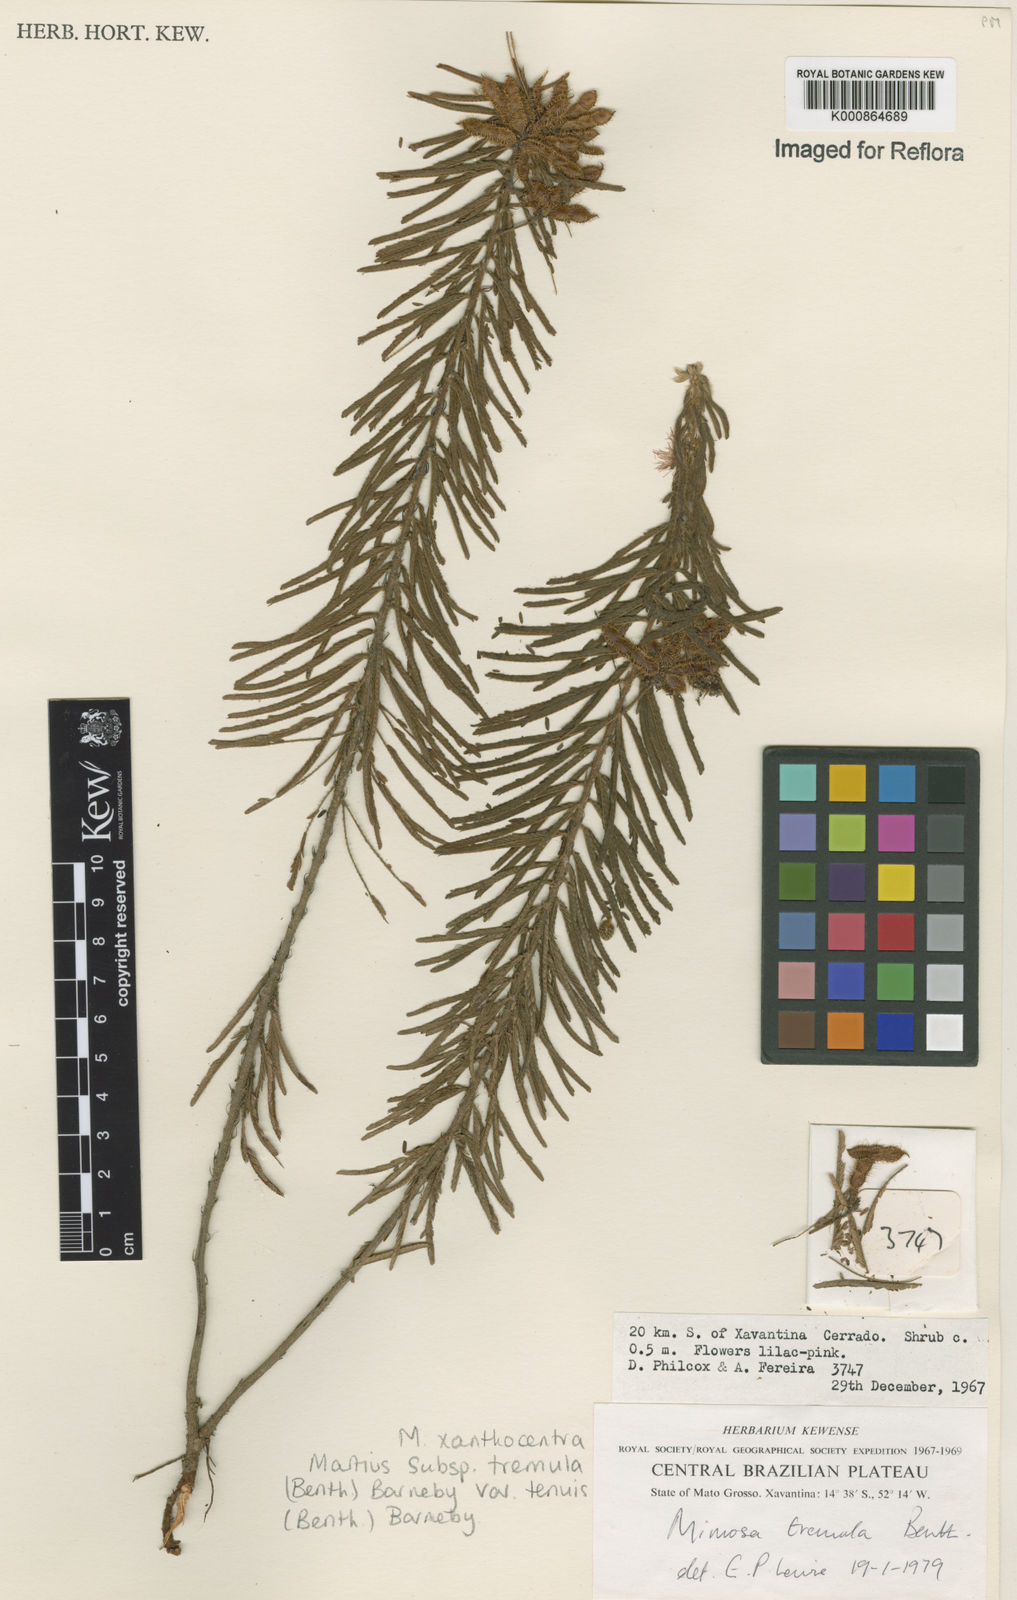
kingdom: Plantae
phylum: Tracheophyta
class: Magnoliopsida
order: Fabales
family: Fabaceae
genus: Mimosa
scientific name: Mimosa xanthocentra
